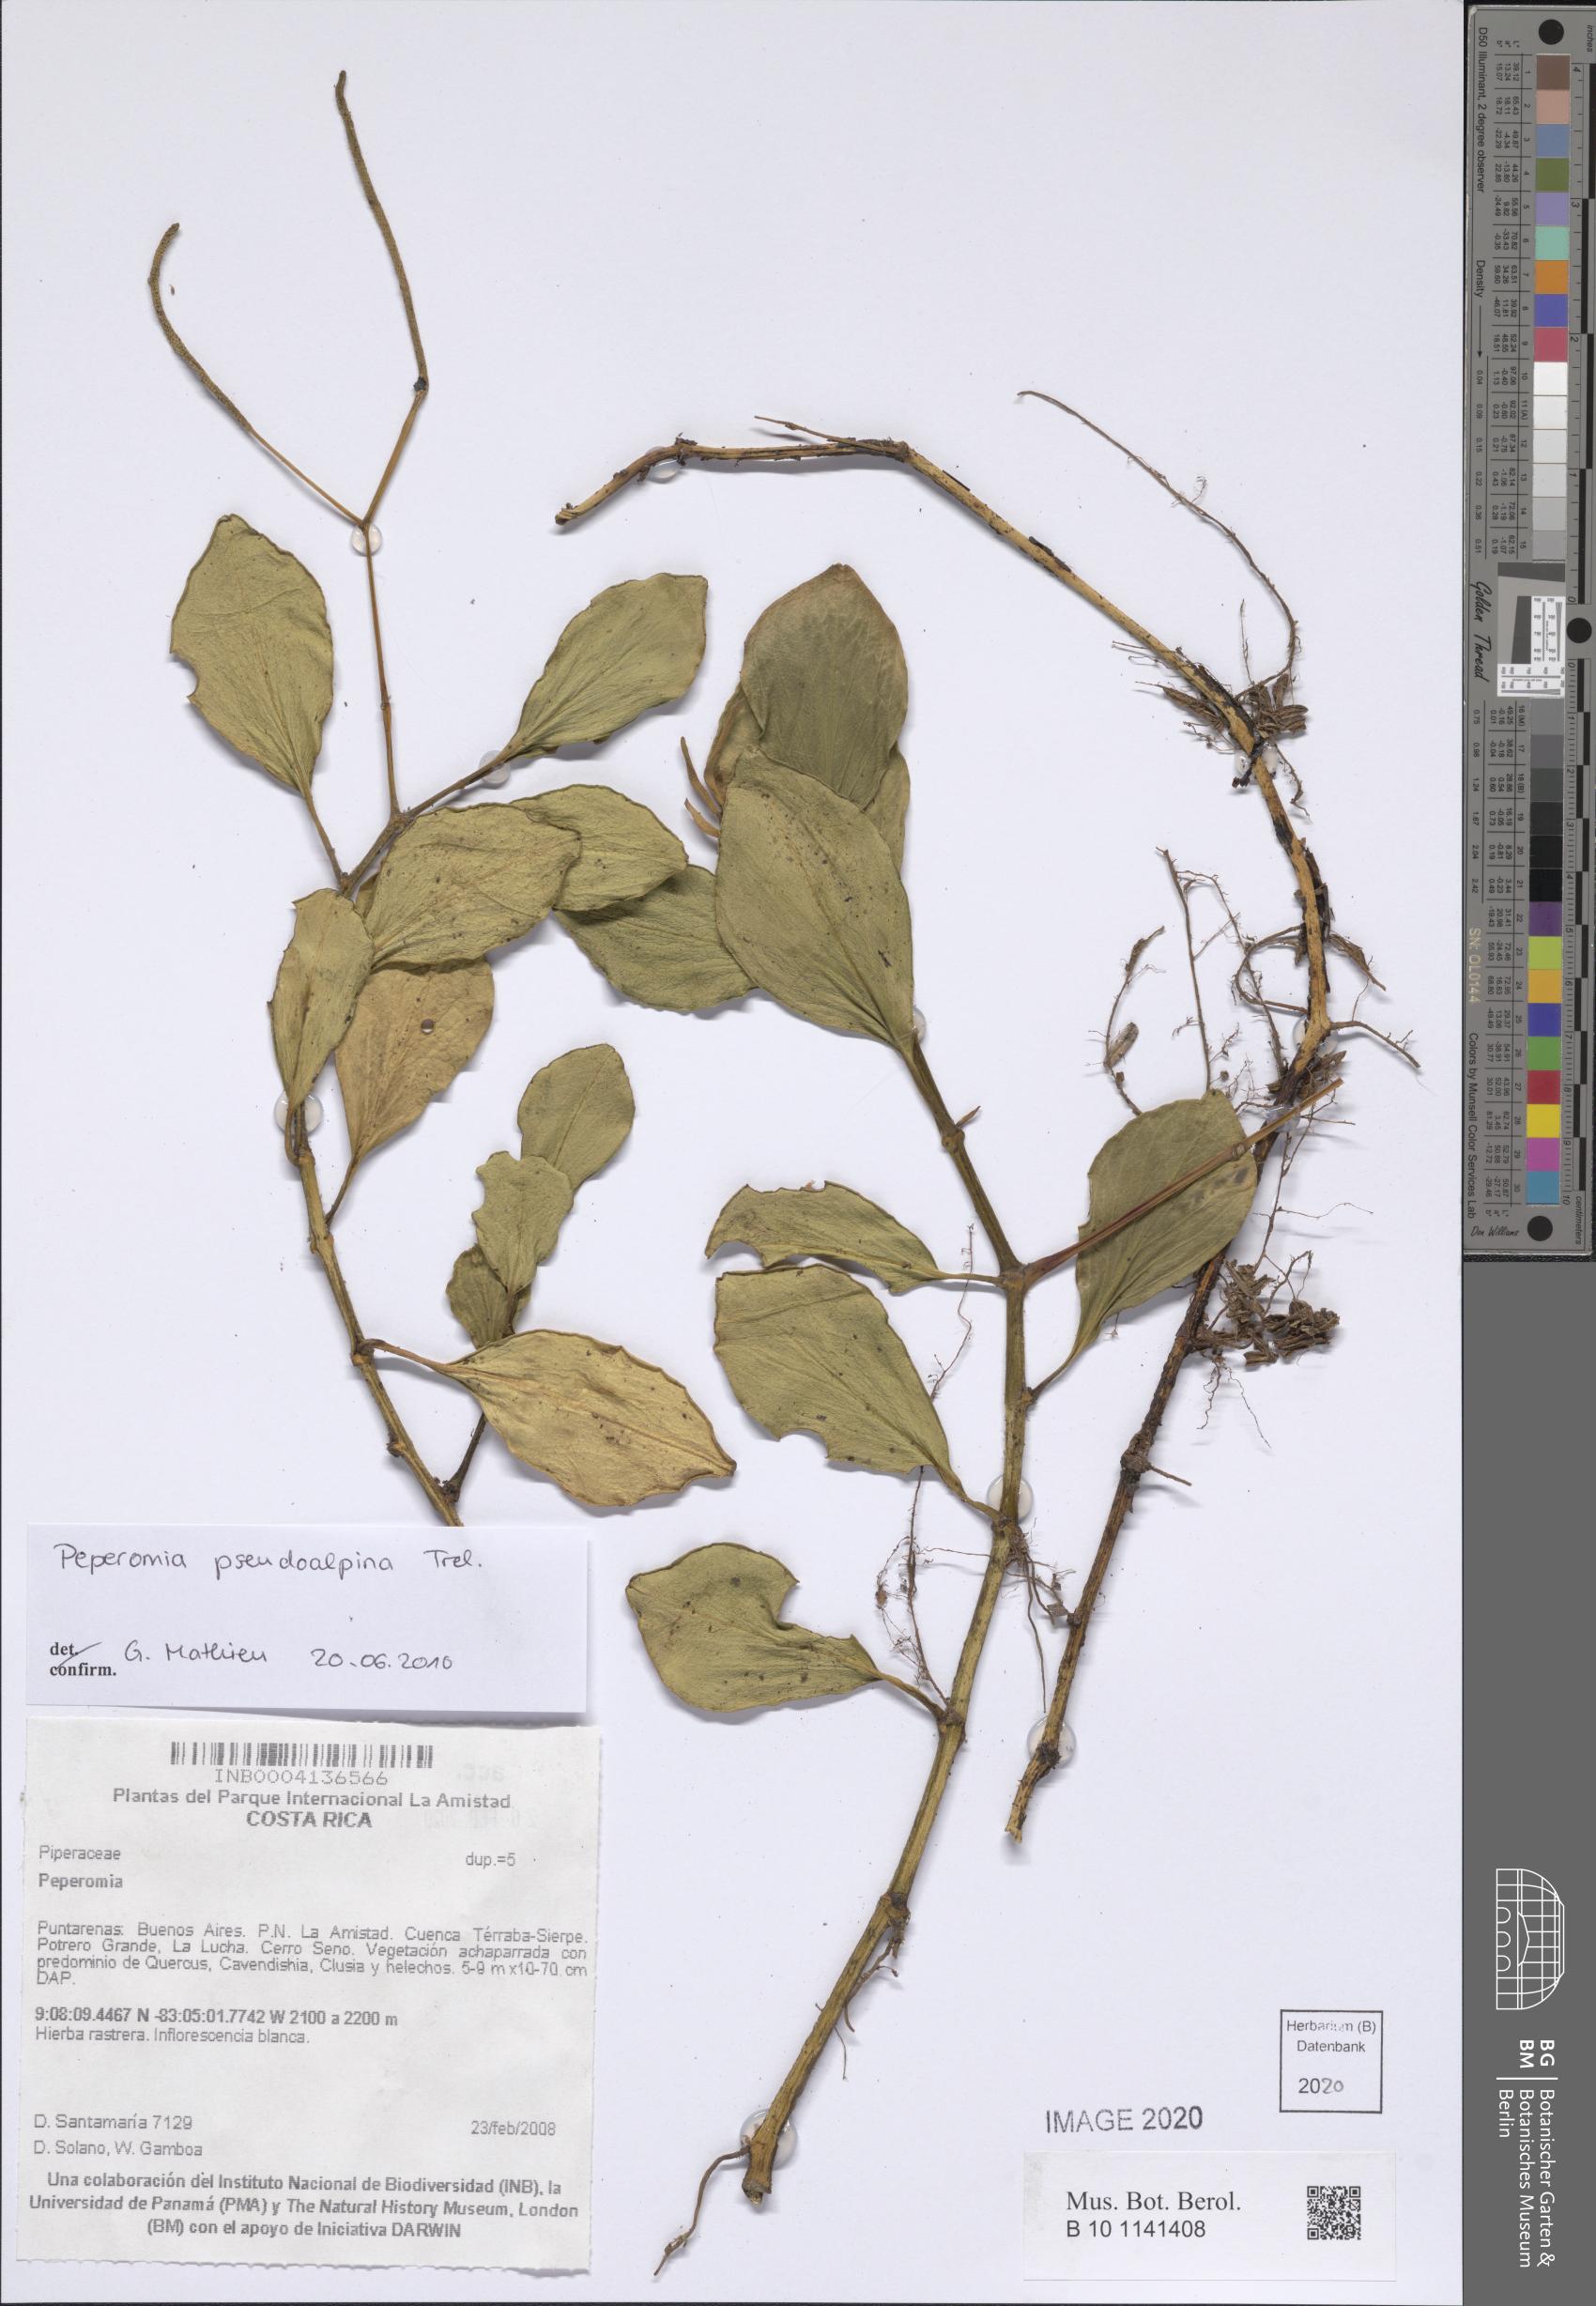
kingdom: Plantae
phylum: Tracheophyta
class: Magnoliopsida
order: Piperales
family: Piperaceae
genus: Peperomia
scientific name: Peperomia pseudoalpina
